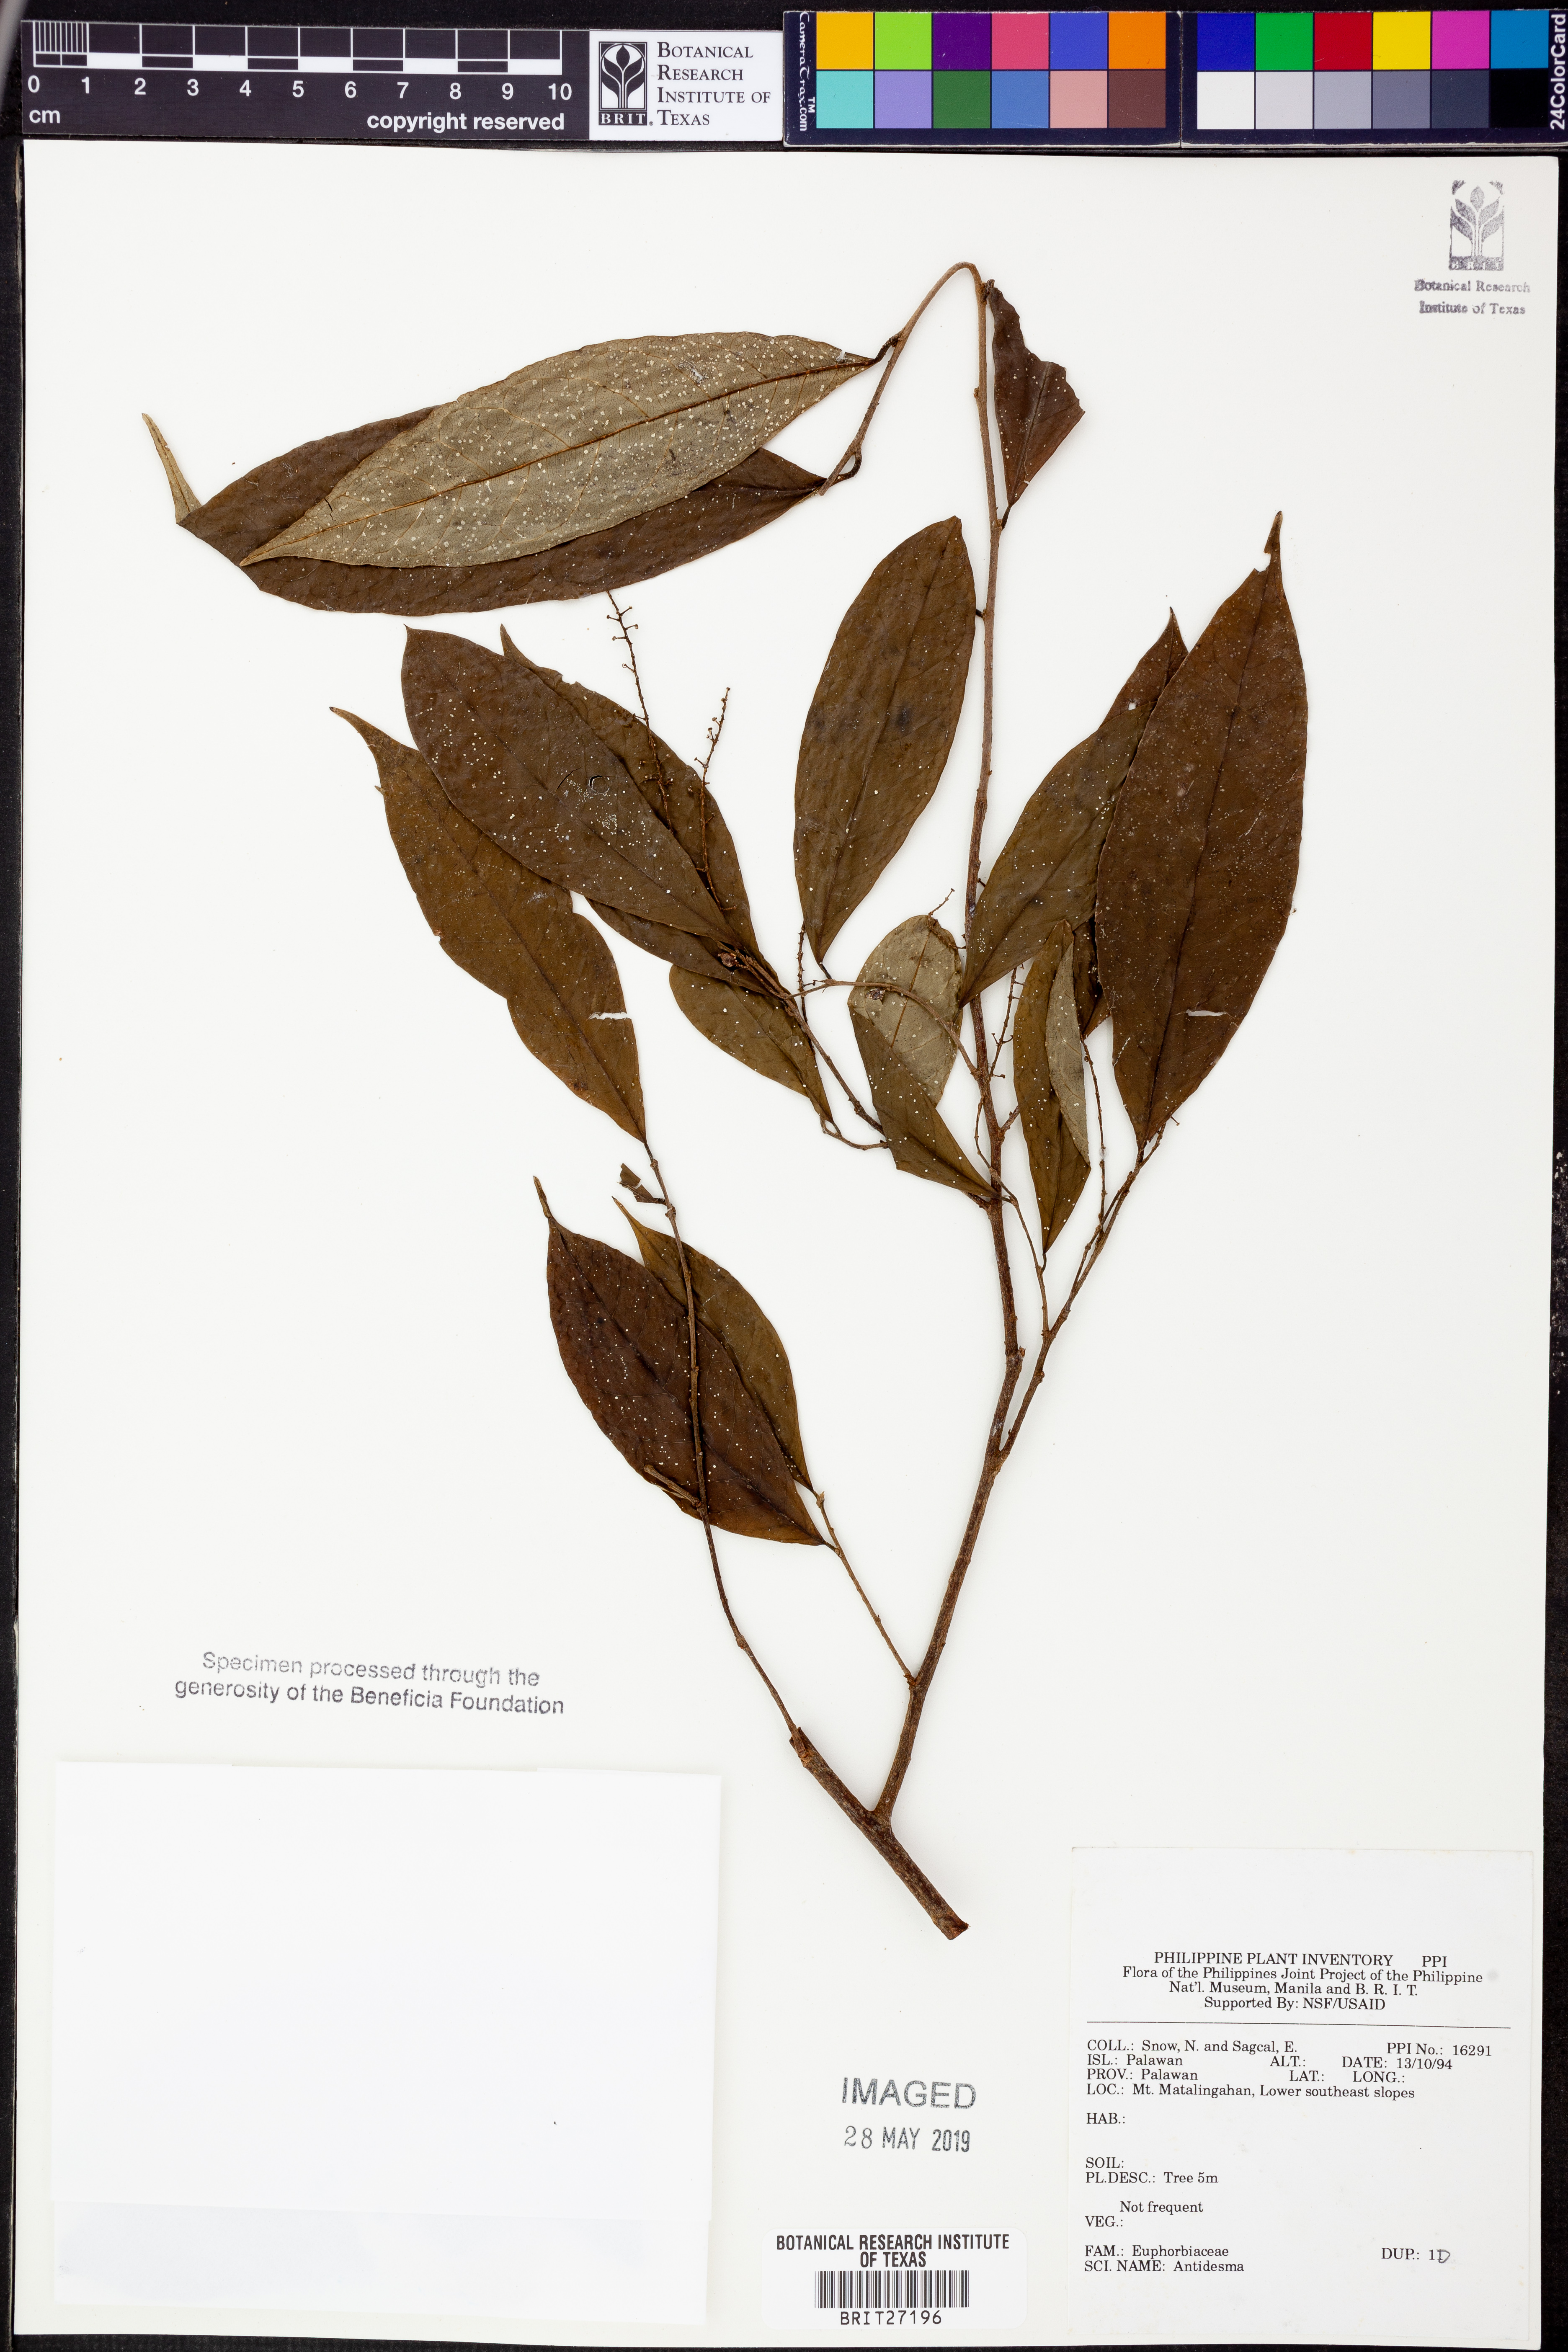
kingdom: Plantae
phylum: Tracheophyta
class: Magnoliopsida
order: Malpighiales
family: Phyllanthaceae
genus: Antidesma
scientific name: Antidesma
